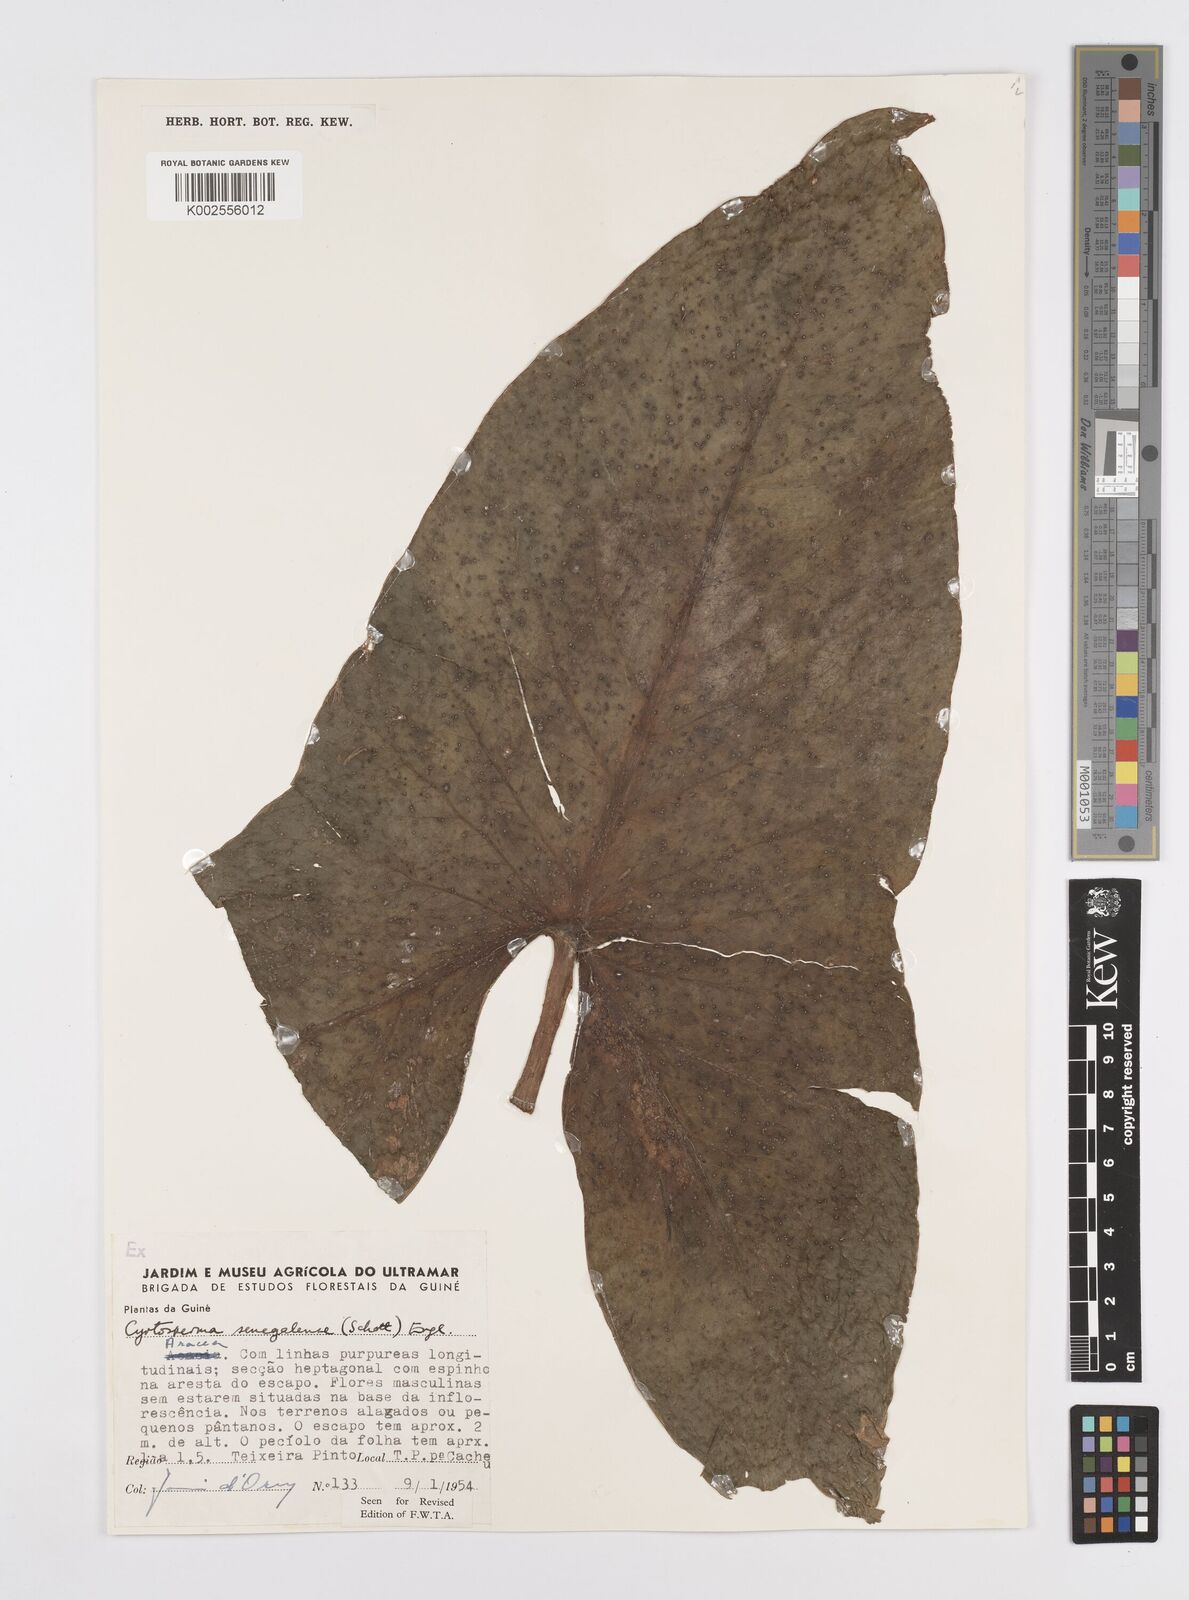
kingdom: Plantae
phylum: Tracheophyta
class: Liliopsida
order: Alismatales
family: Araceae
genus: Lasimorpha
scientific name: Lasimorpha senegalensis
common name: Swamp arum
